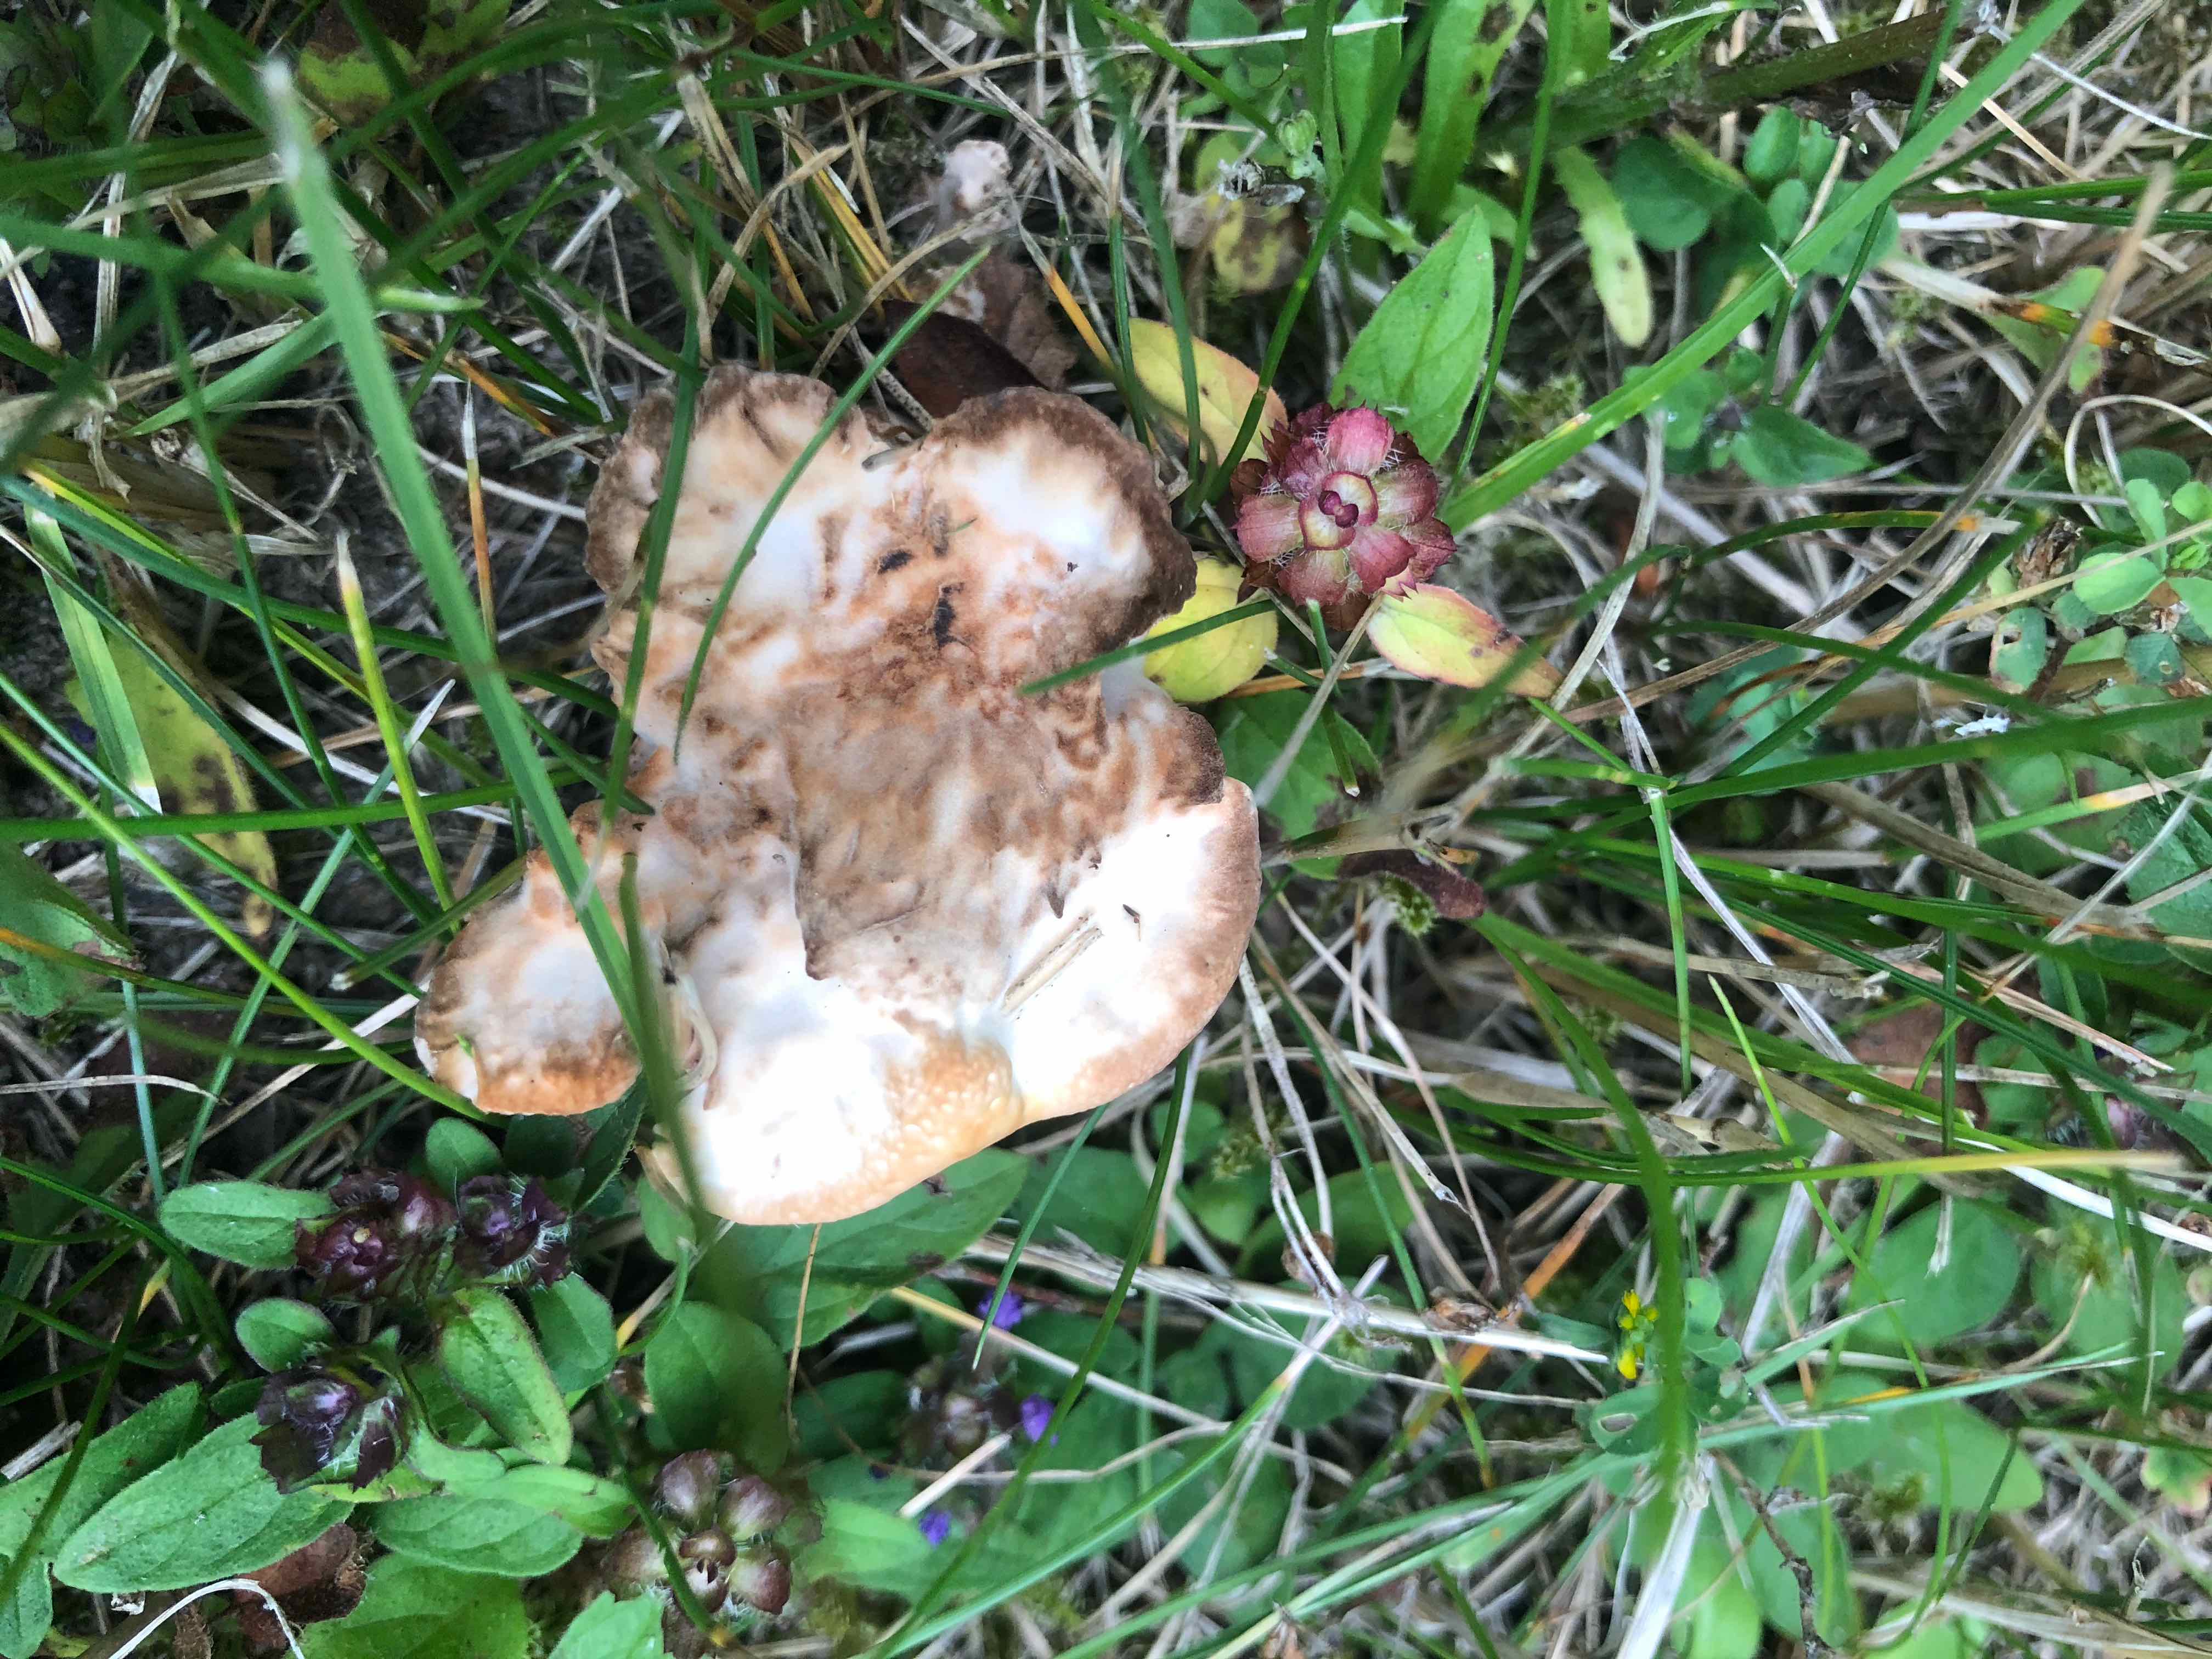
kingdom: Fungi
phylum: Basidiomycota
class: Agaricomycetes
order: Polyporales
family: Podoscyphaceae
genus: Abortiporus
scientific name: Abortiporus biennis
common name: rødmende pjalteporesvamp
